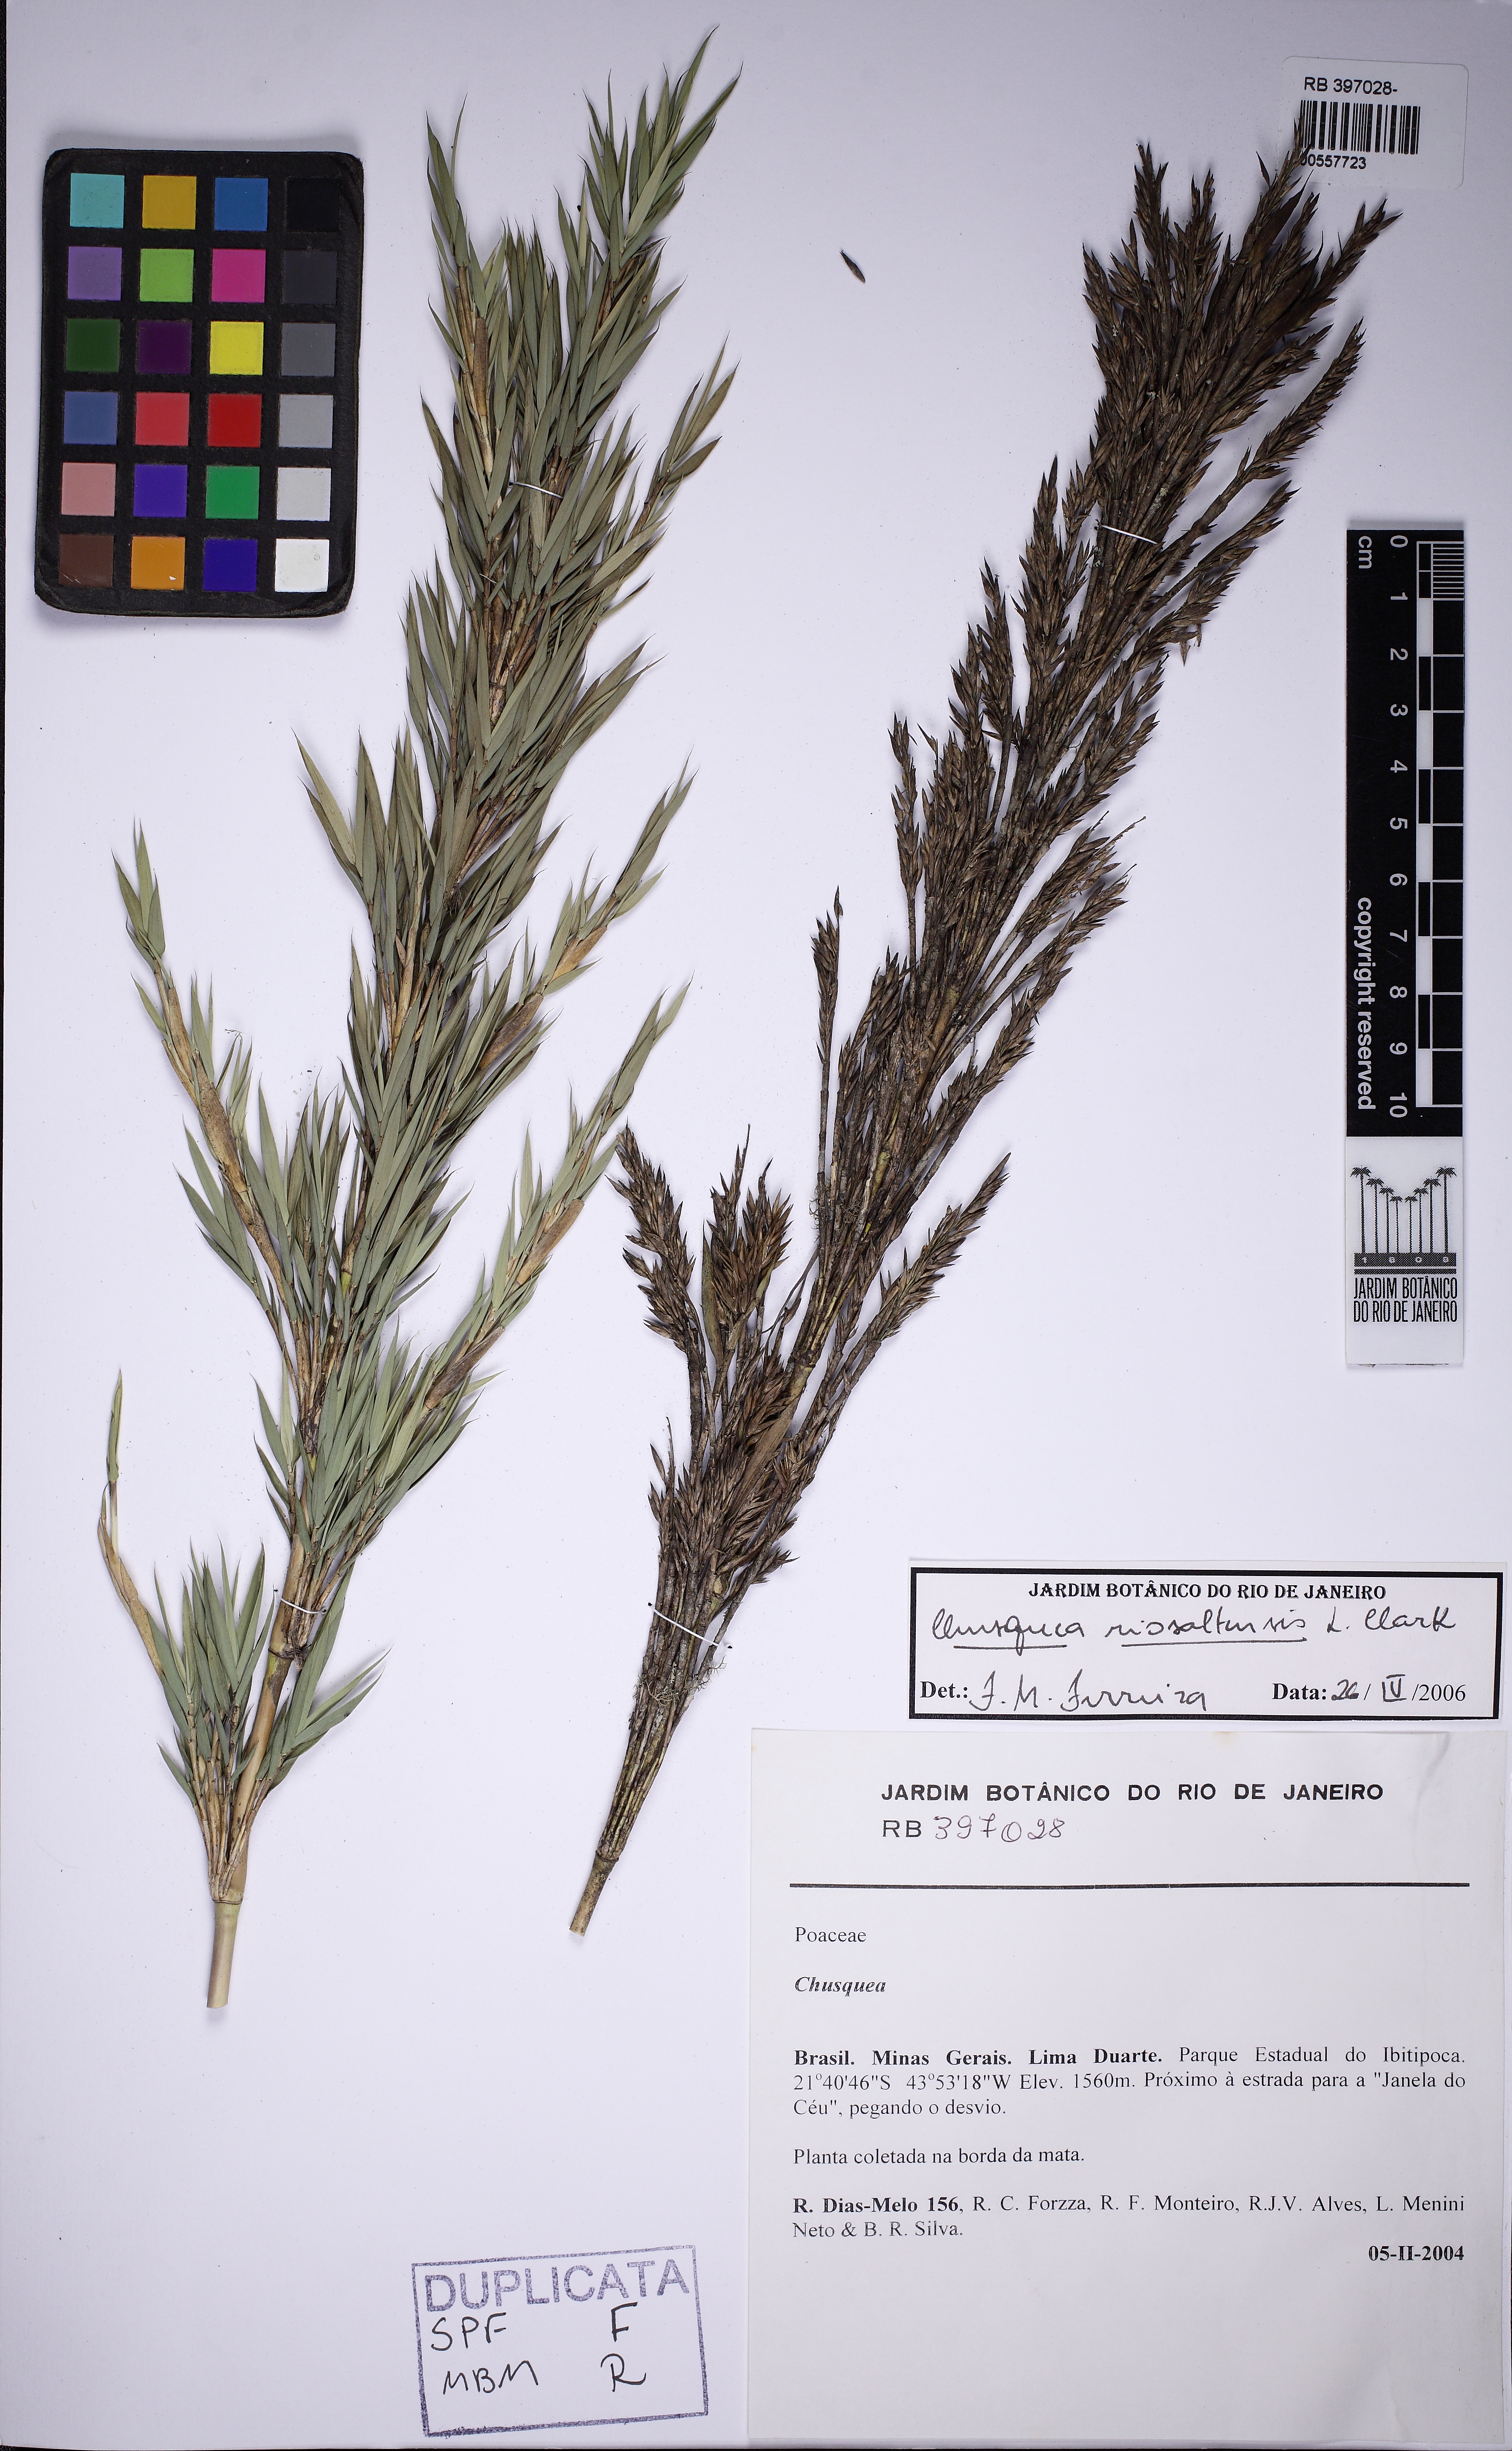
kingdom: Plantae
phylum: Tracheophyta
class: Liliopsida
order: Poales
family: Poaceae
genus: Chusquea
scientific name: Chusquea riosaltensis
